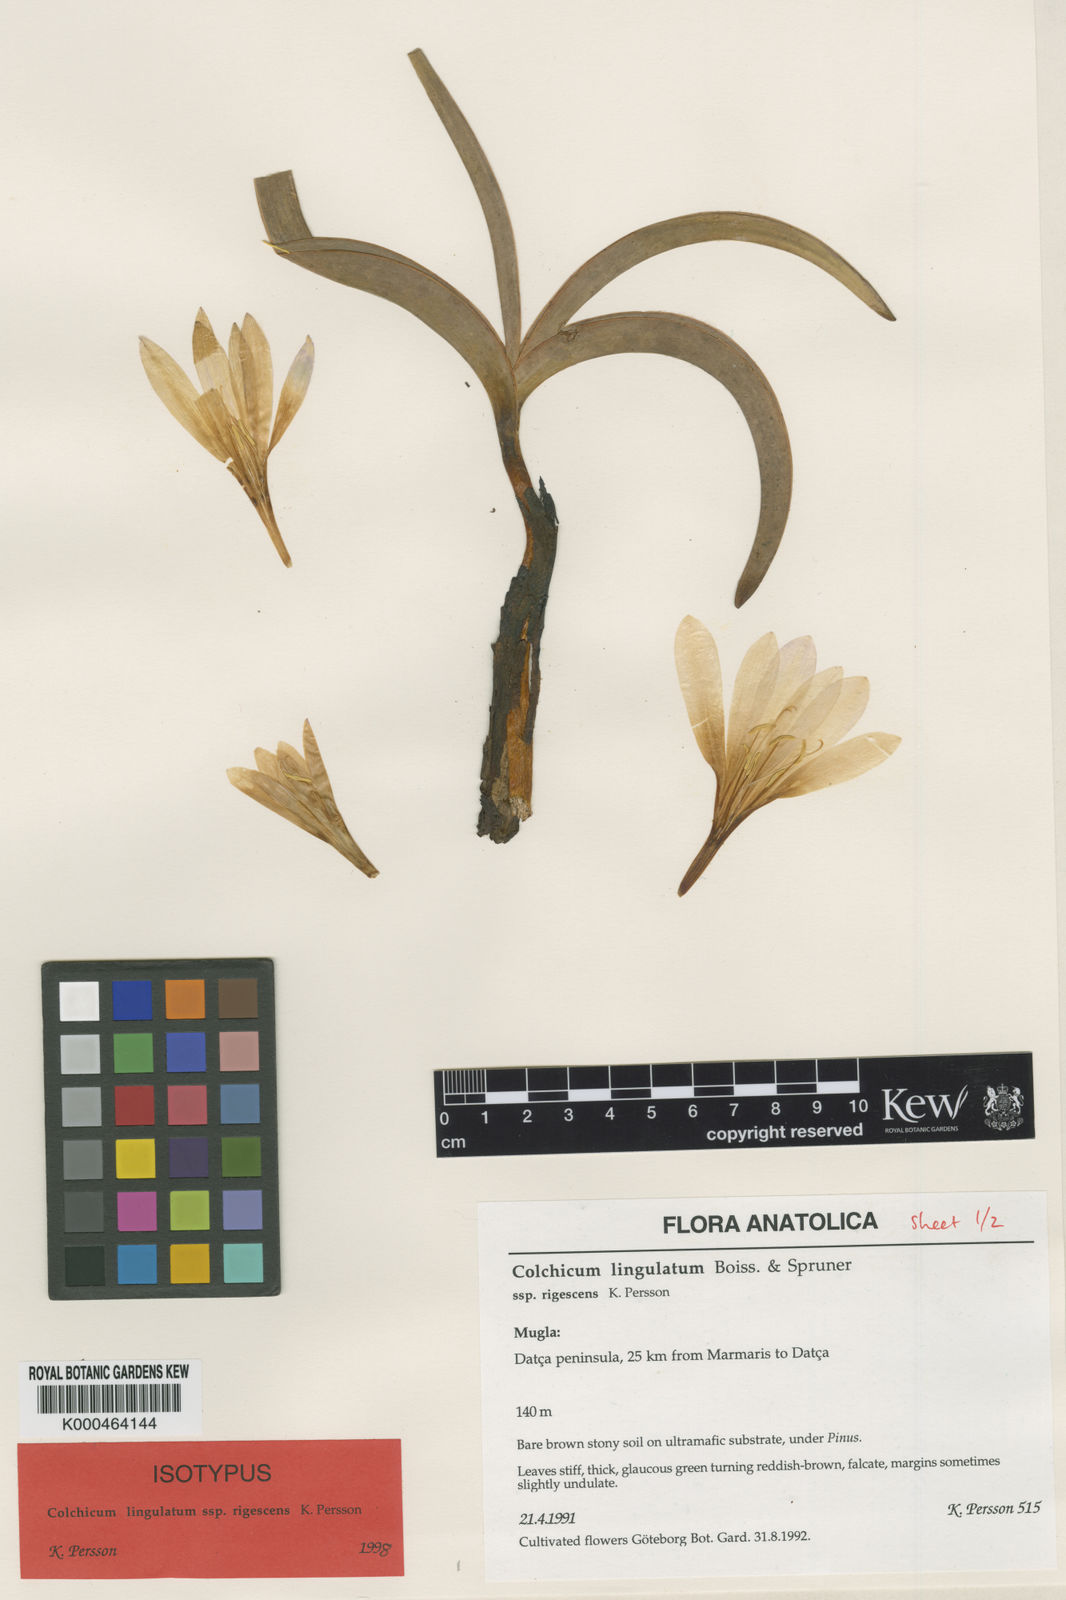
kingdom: Plantae
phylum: Tracheophyta
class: Liliopsida
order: Liliales
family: Colchicaceae
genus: Colchicum
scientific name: Colchicum lingulatum
